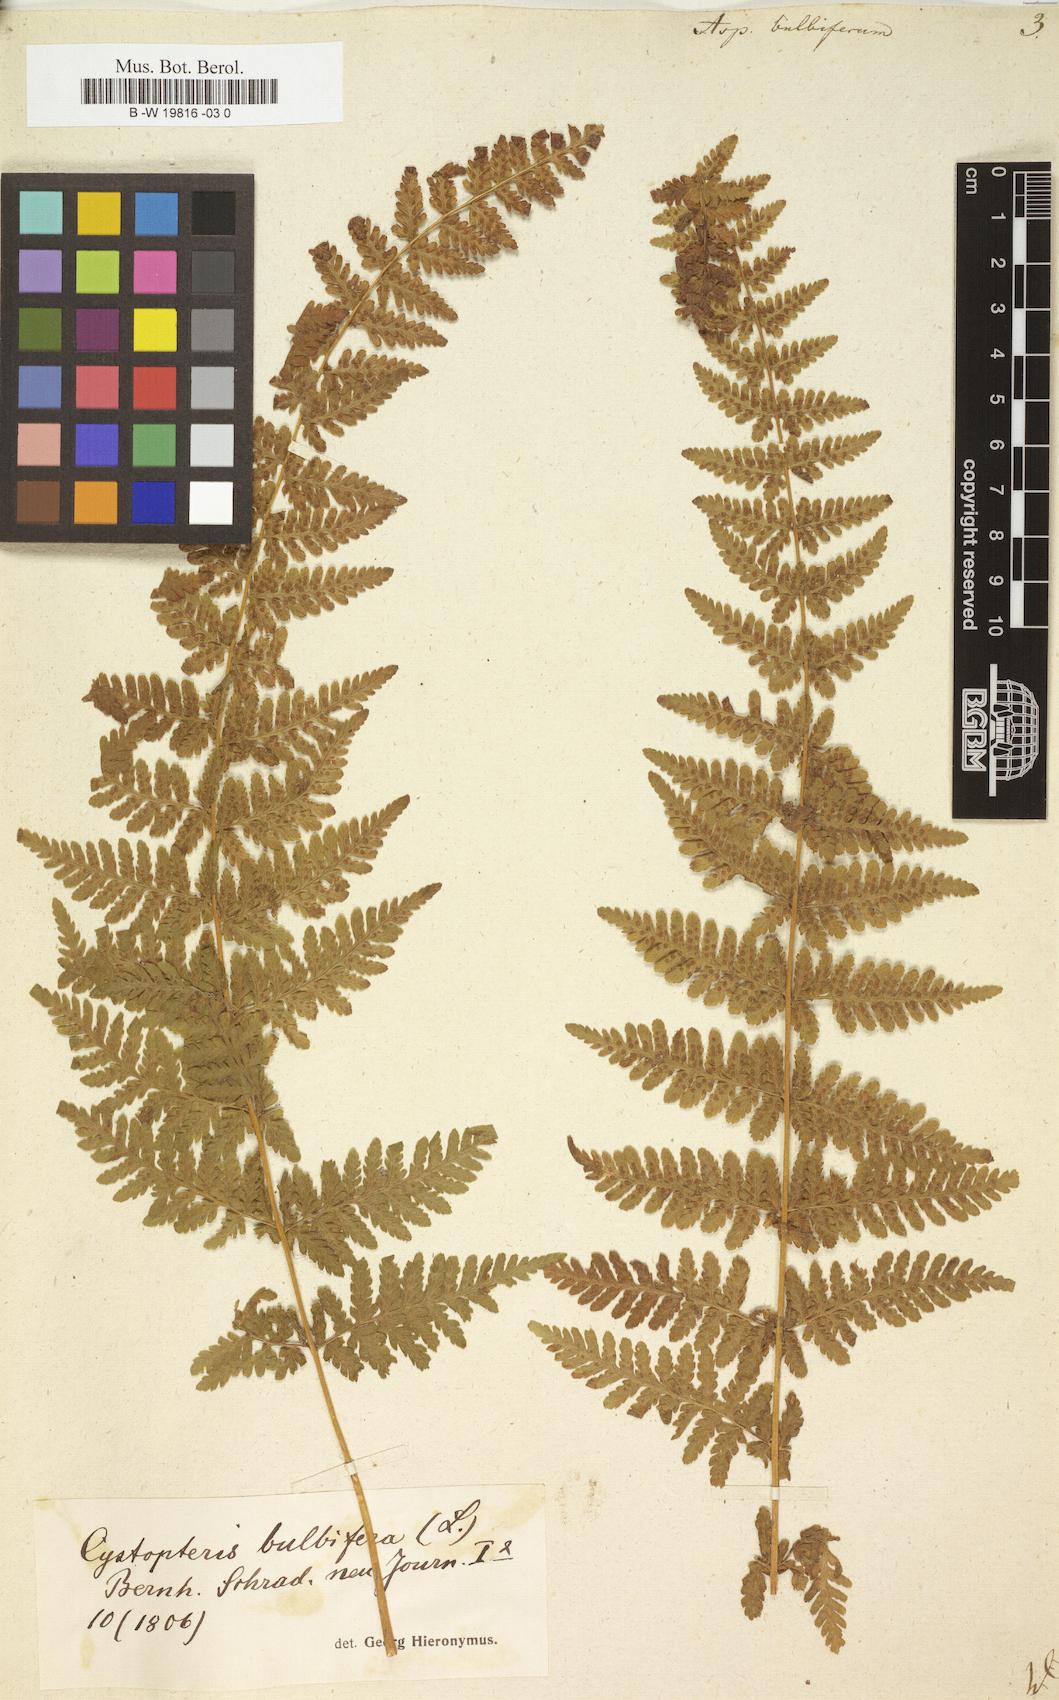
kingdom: Plantae
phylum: Tracheophyta
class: Polypodiopsida
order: Polypodiales
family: Cystopteridaceae
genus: Cystopteris
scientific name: Cystopteris bulbifera
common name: Bulblet bladder fern
